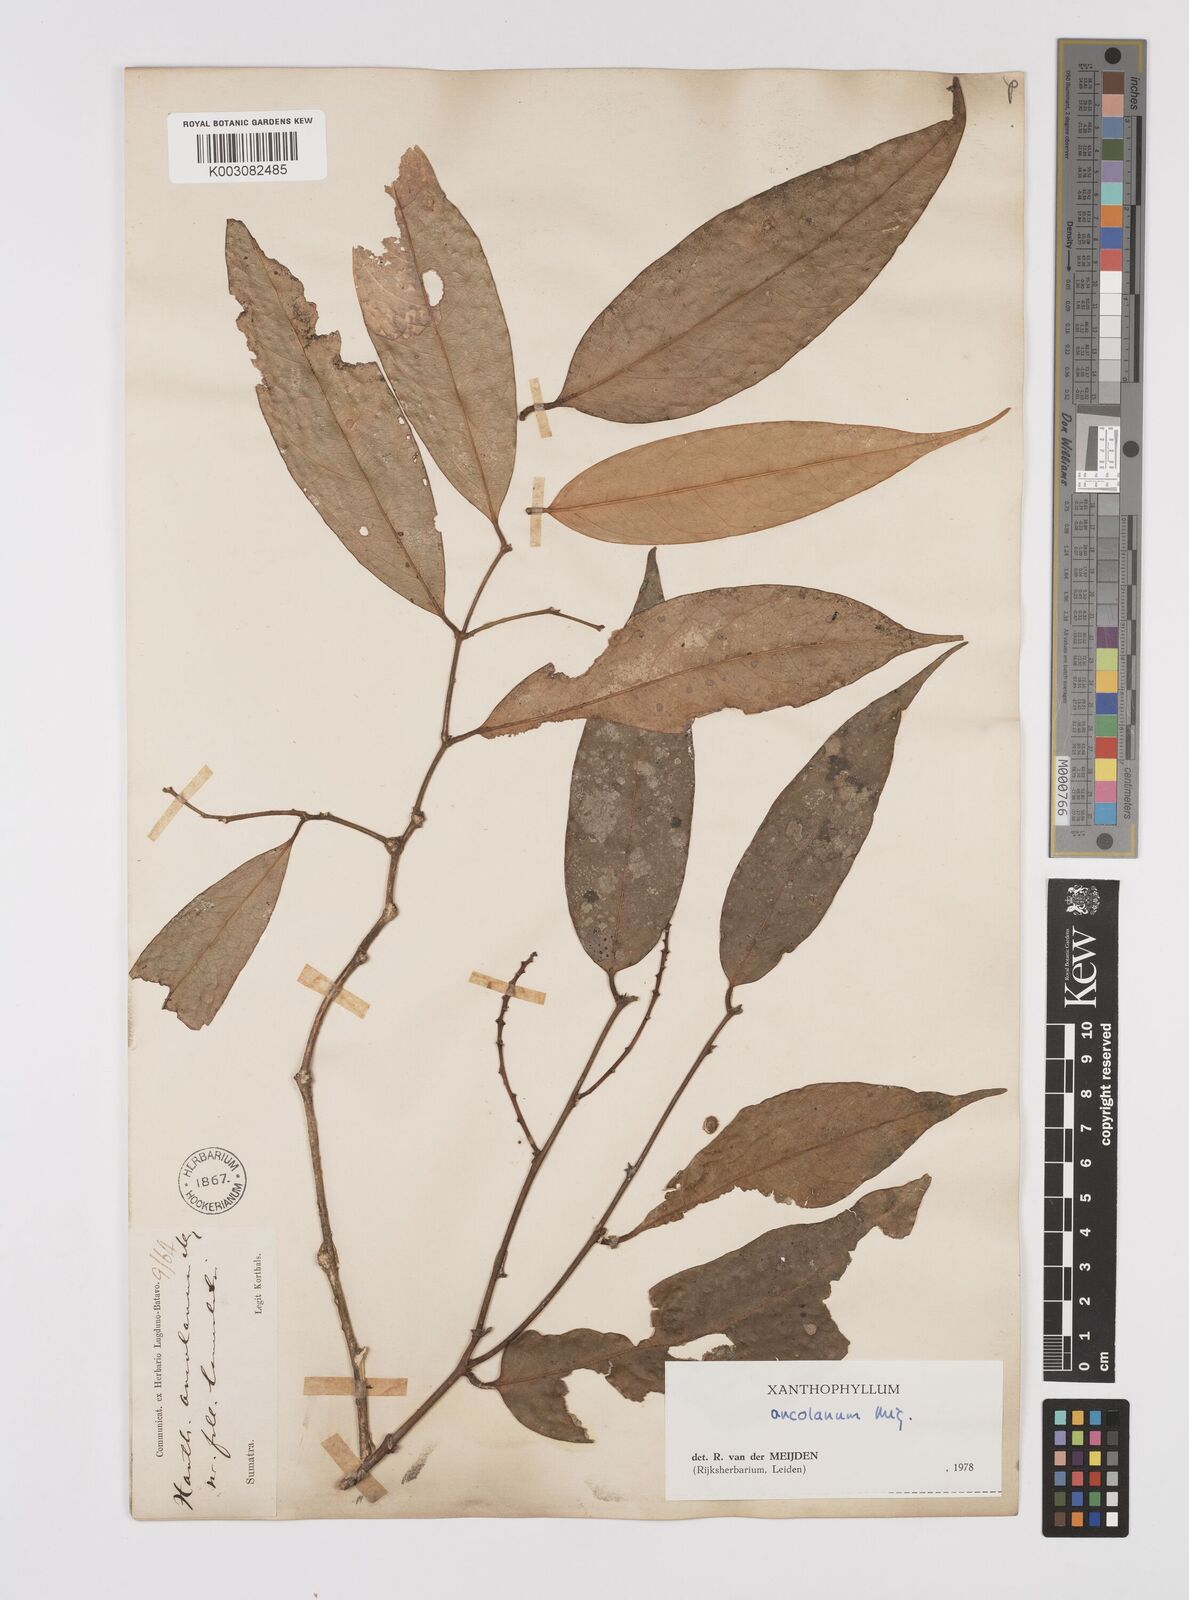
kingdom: Plantae
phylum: Tracheophyta
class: Magnoliopsida
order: Fabales
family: Polygalaceae
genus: Xanthophyllum
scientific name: Xanthophyllum ancolanum
